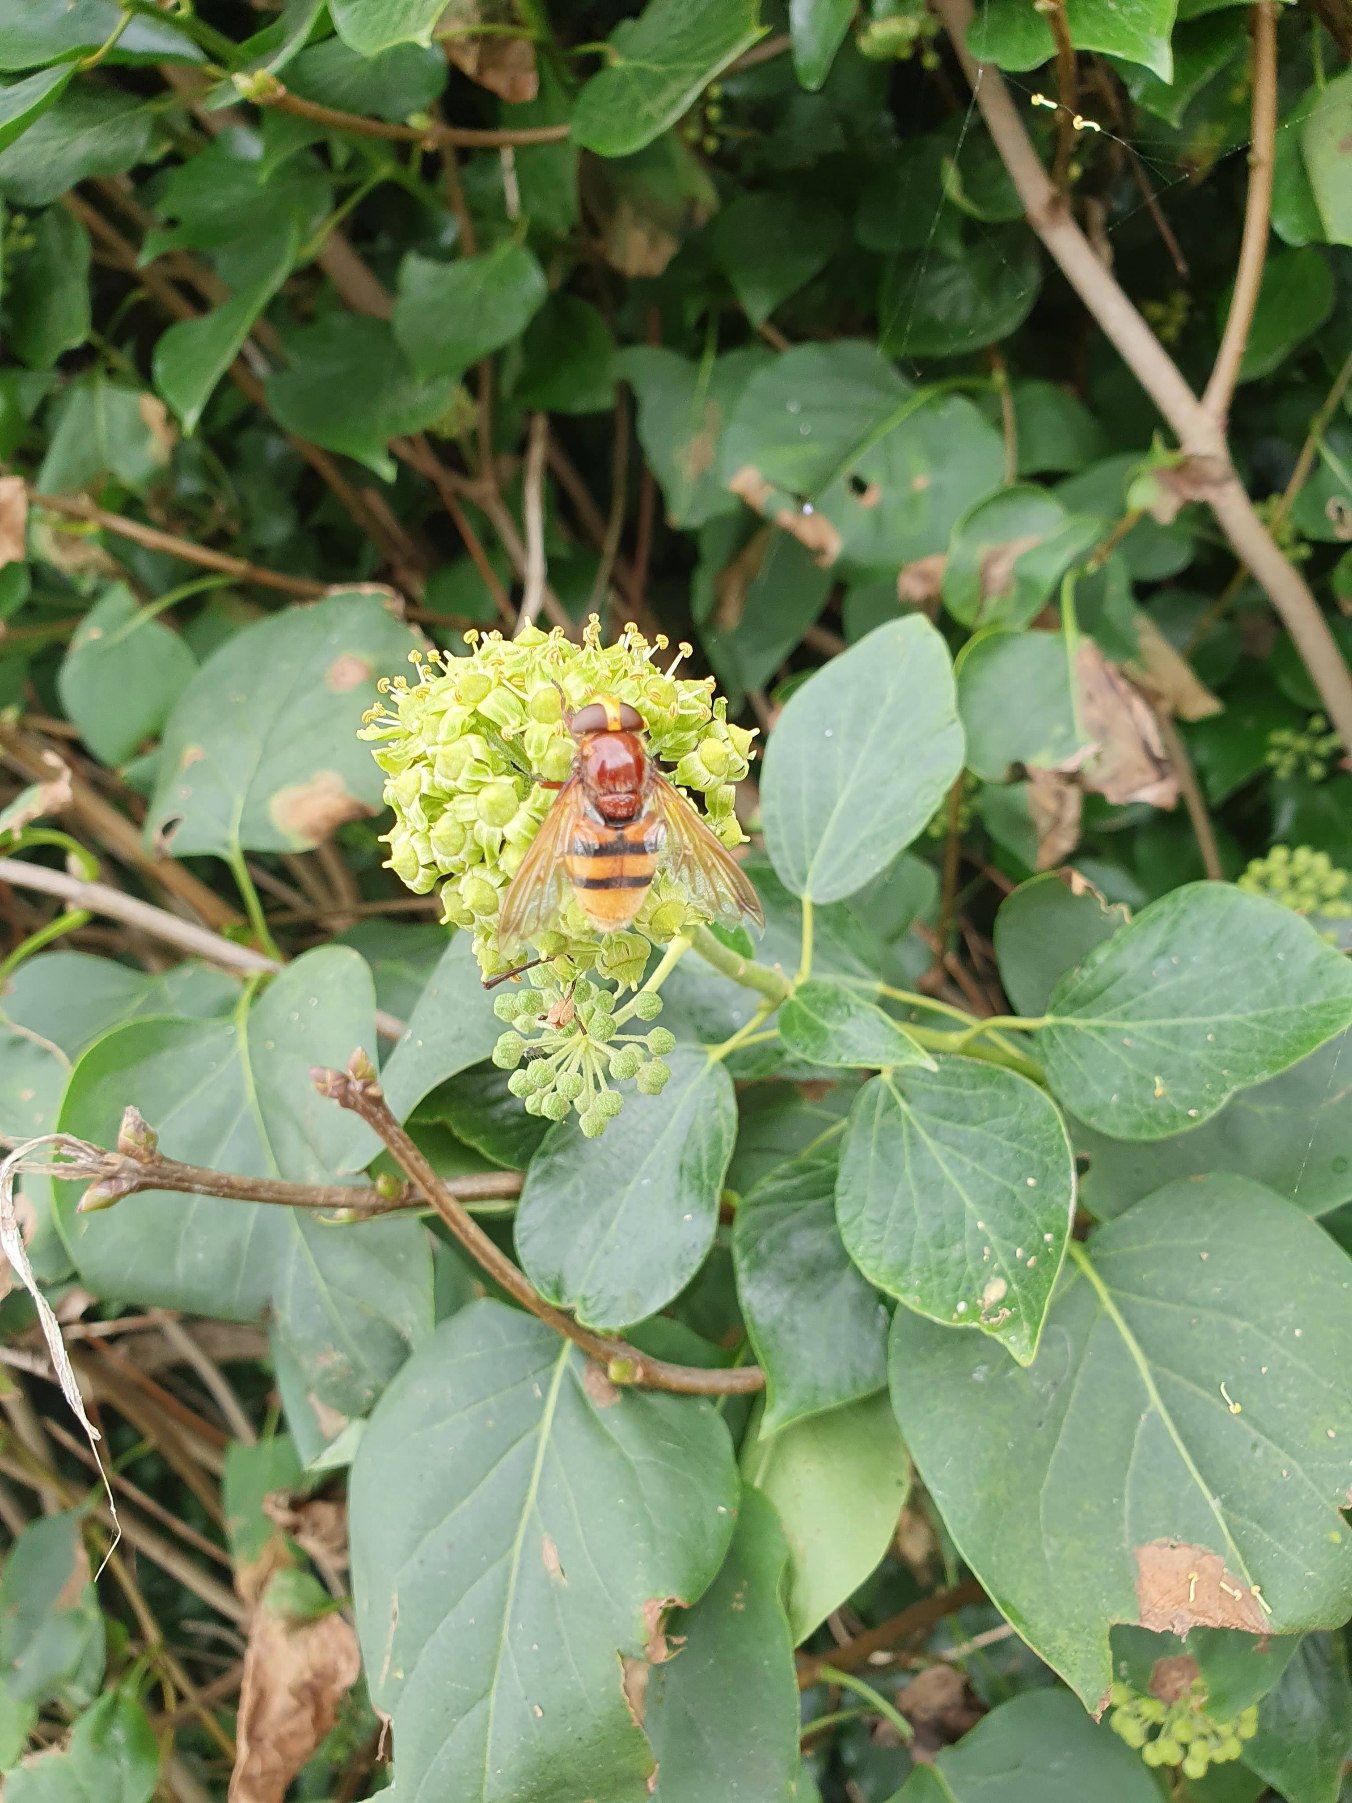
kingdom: Animalia
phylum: Arthropoda
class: Insecta
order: Diptera
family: Syrphidae
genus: Volucella
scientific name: Volucella zonaria
